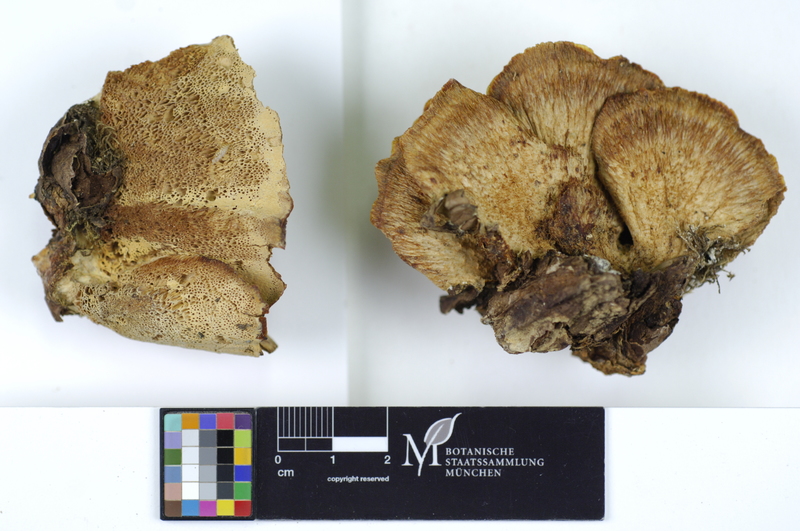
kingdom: Fungi
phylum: Basidiomycota
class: Agaricomycetes
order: Polyporales
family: Fomitopsidaceae
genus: Climacocystis
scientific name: Climacocystis borealis
